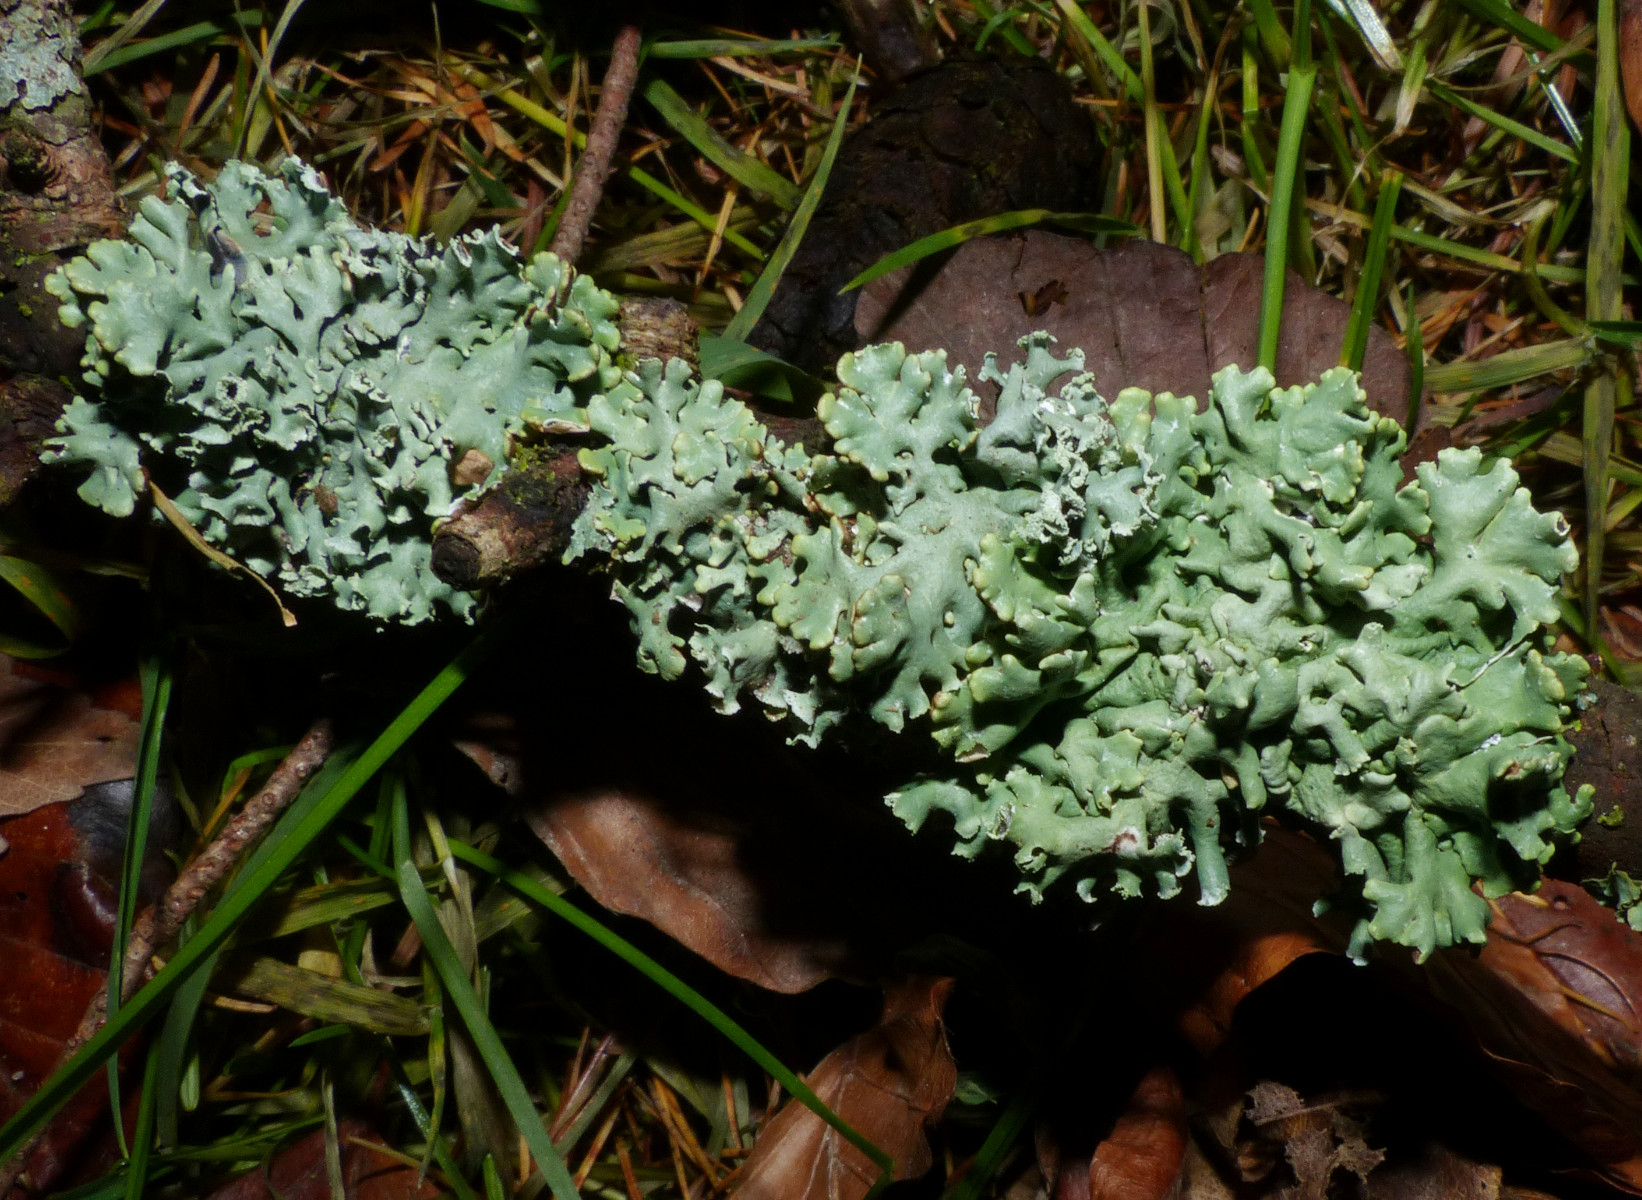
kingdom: Fungi
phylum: Ascomycota
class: Lecanoromycetes
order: Lecanorales
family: Parmeliaceae
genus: Hypogymnia
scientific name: Hypogymnia physodes
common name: almindelig kvistlav
